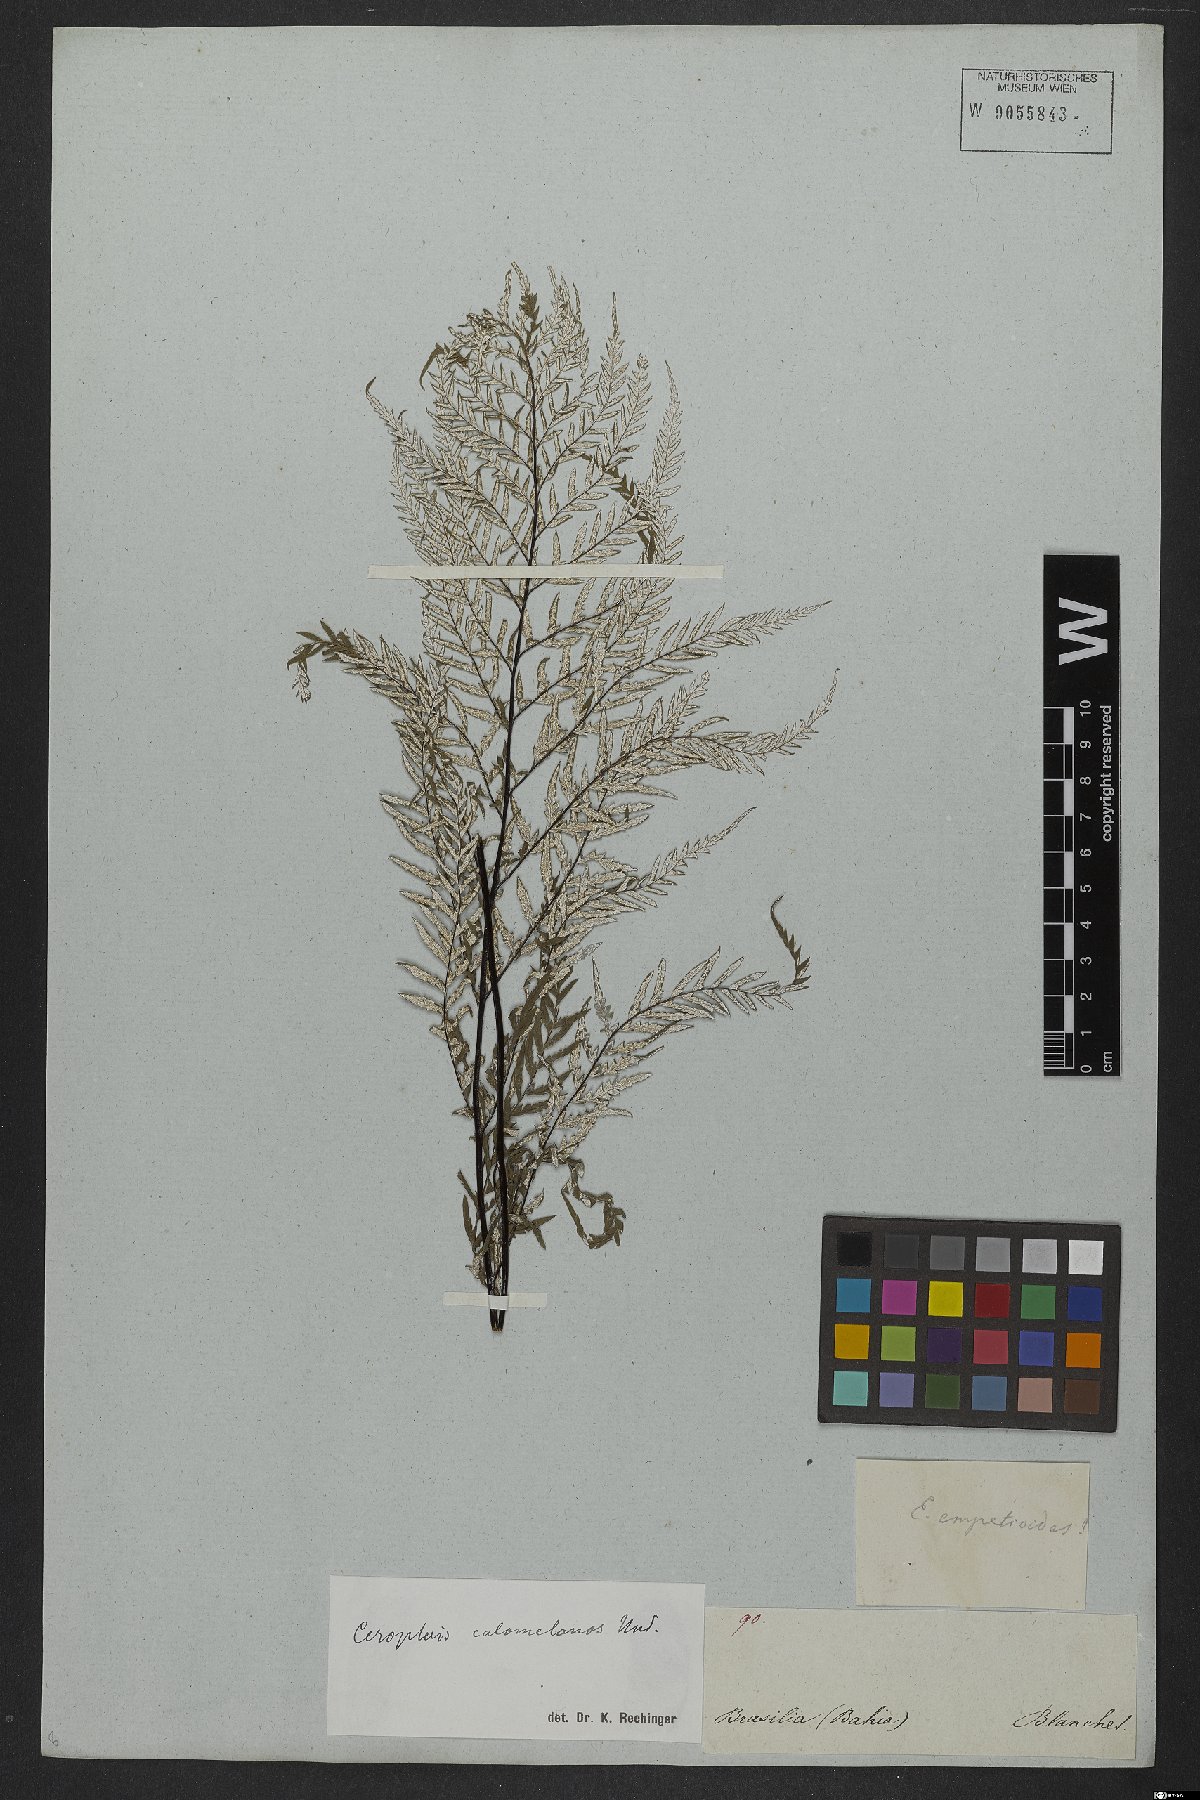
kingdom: Plantae
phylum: Tracheophyta
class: Polypodiopsida
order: Polypodiales
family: Pteridaceae
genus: Pityrogramma
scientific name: Pityrogramma calomelanos
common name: Dixie silverback fern
